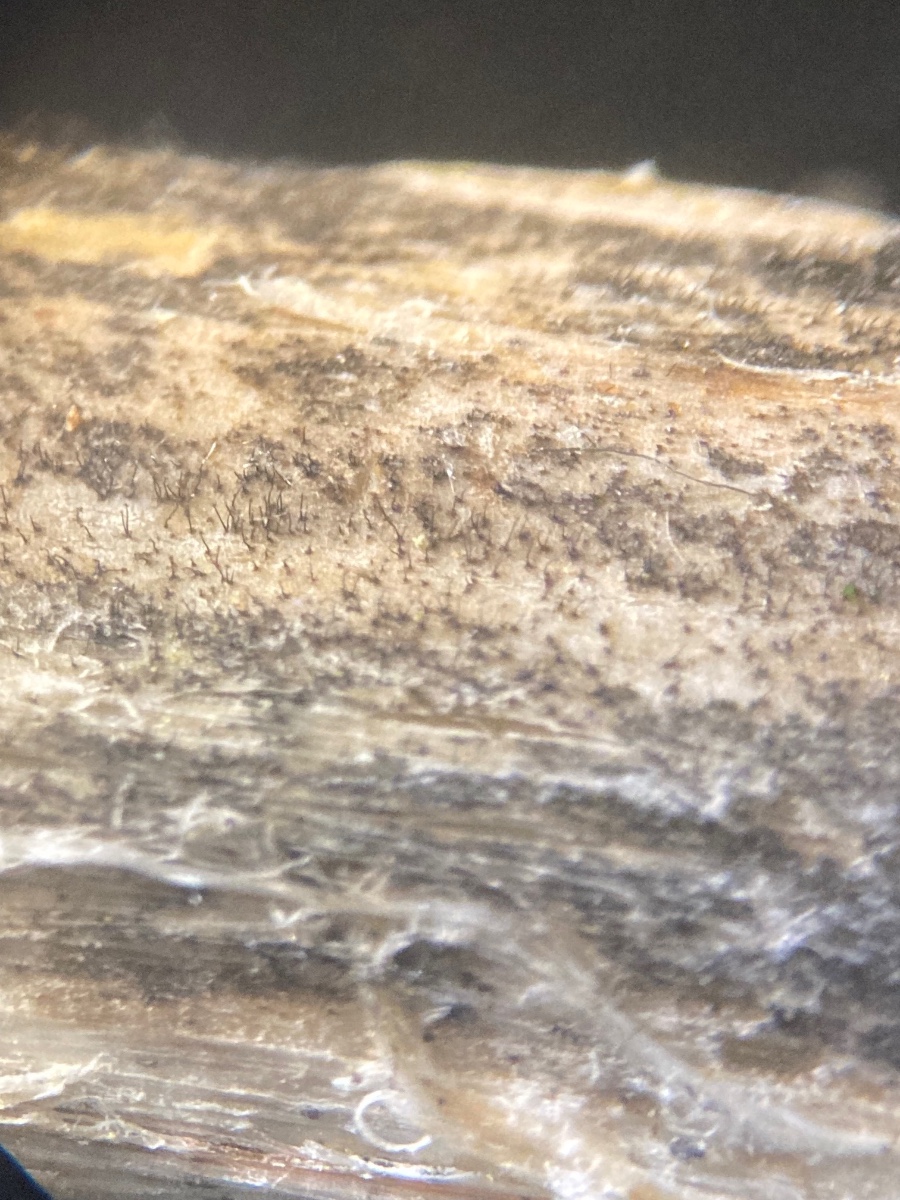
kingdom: Fungi
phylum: Ascomycota
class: Dothideomycetes
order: Pleosporales
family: Torulaceae
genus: Dendryphion
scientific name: Dendryphion comosum
